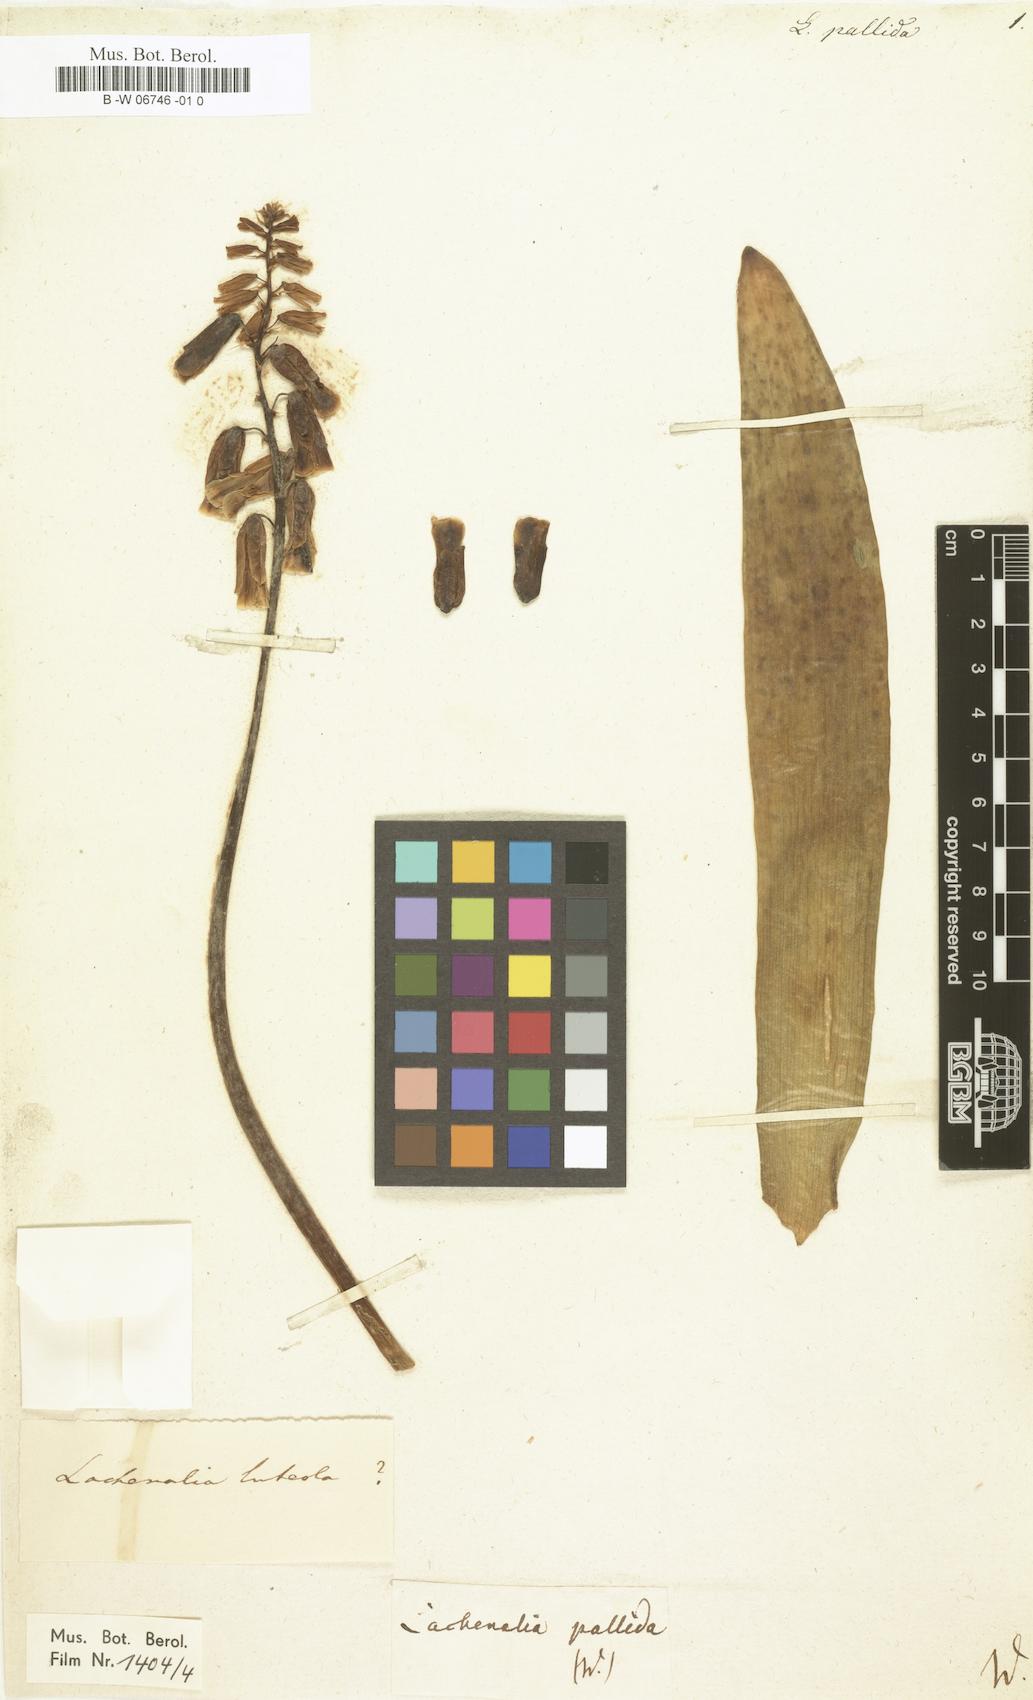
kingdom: Plantae
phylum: Tracheophyta
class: Liliopsida
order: Asparagales
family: Asparagaceae
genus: Lachenalia
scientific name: Lachenalia pallida
